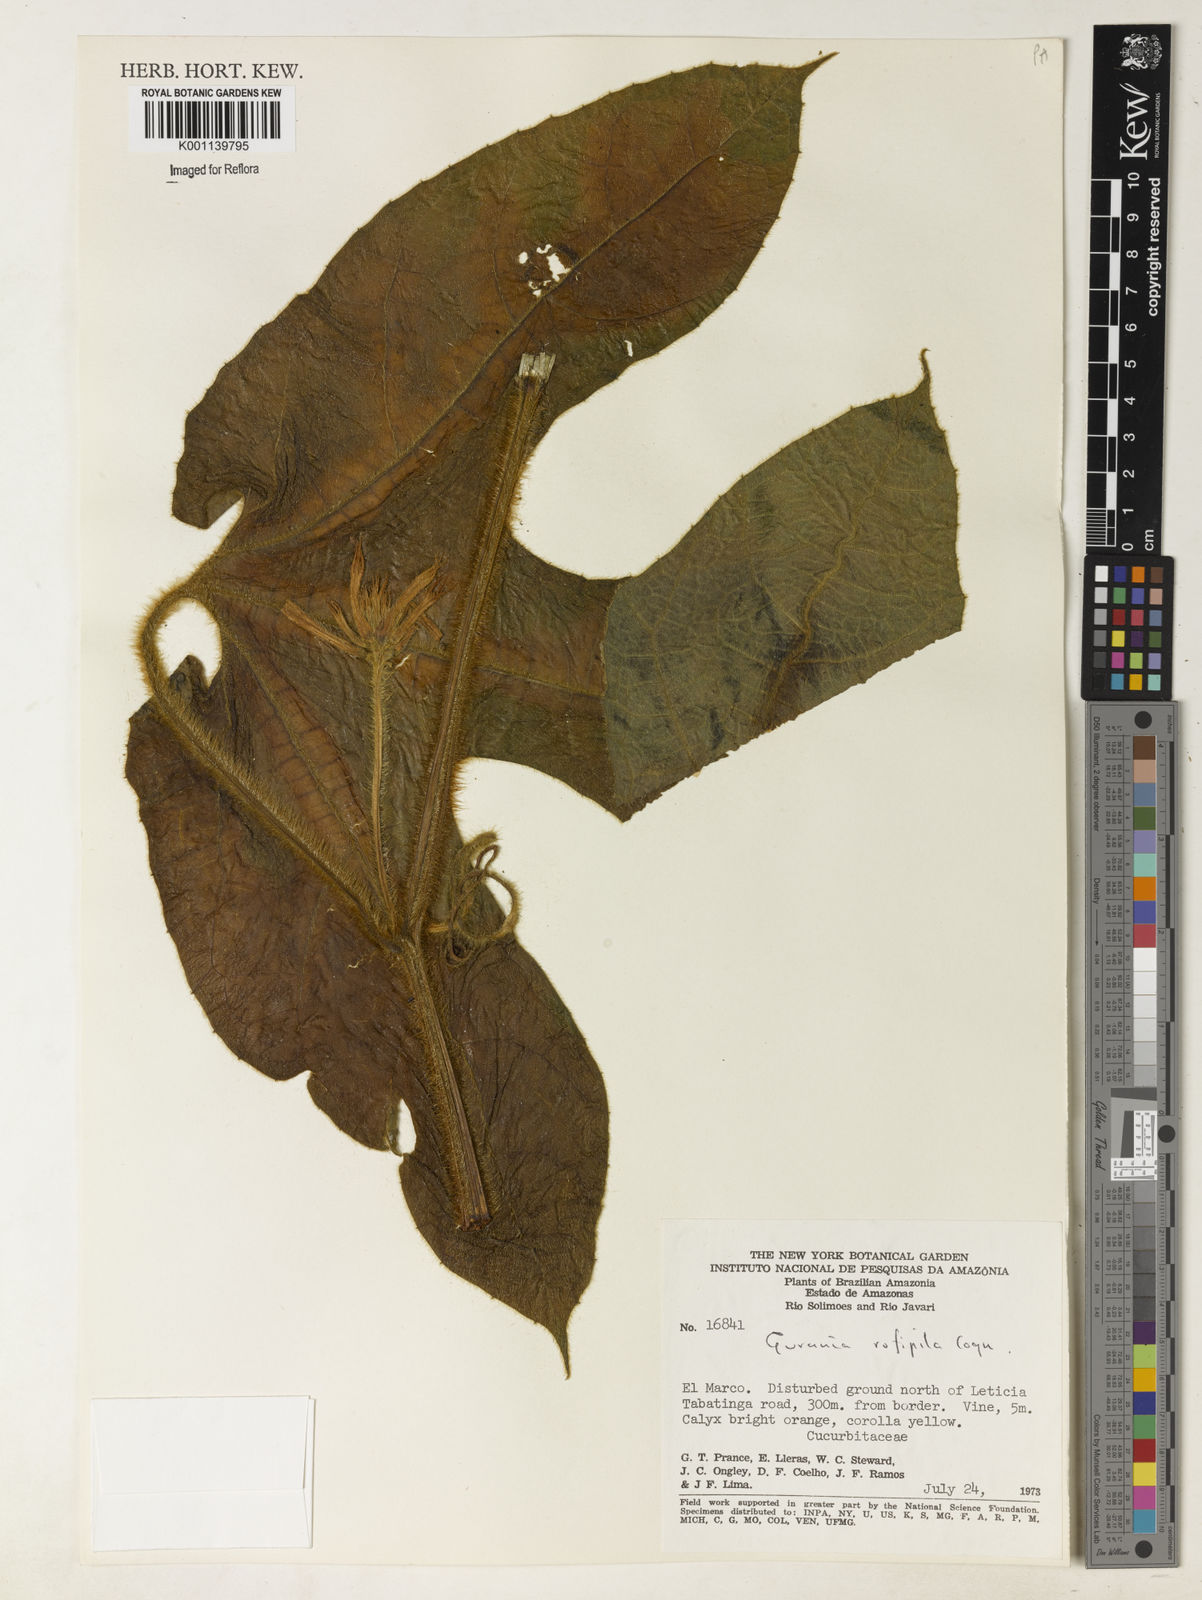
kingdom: Plantae
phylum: Tracheophyta
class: Magnoliopsida
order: Cucurbitales
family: Cucurbitaceae
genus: Gurania
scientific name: Gurania rufipila
